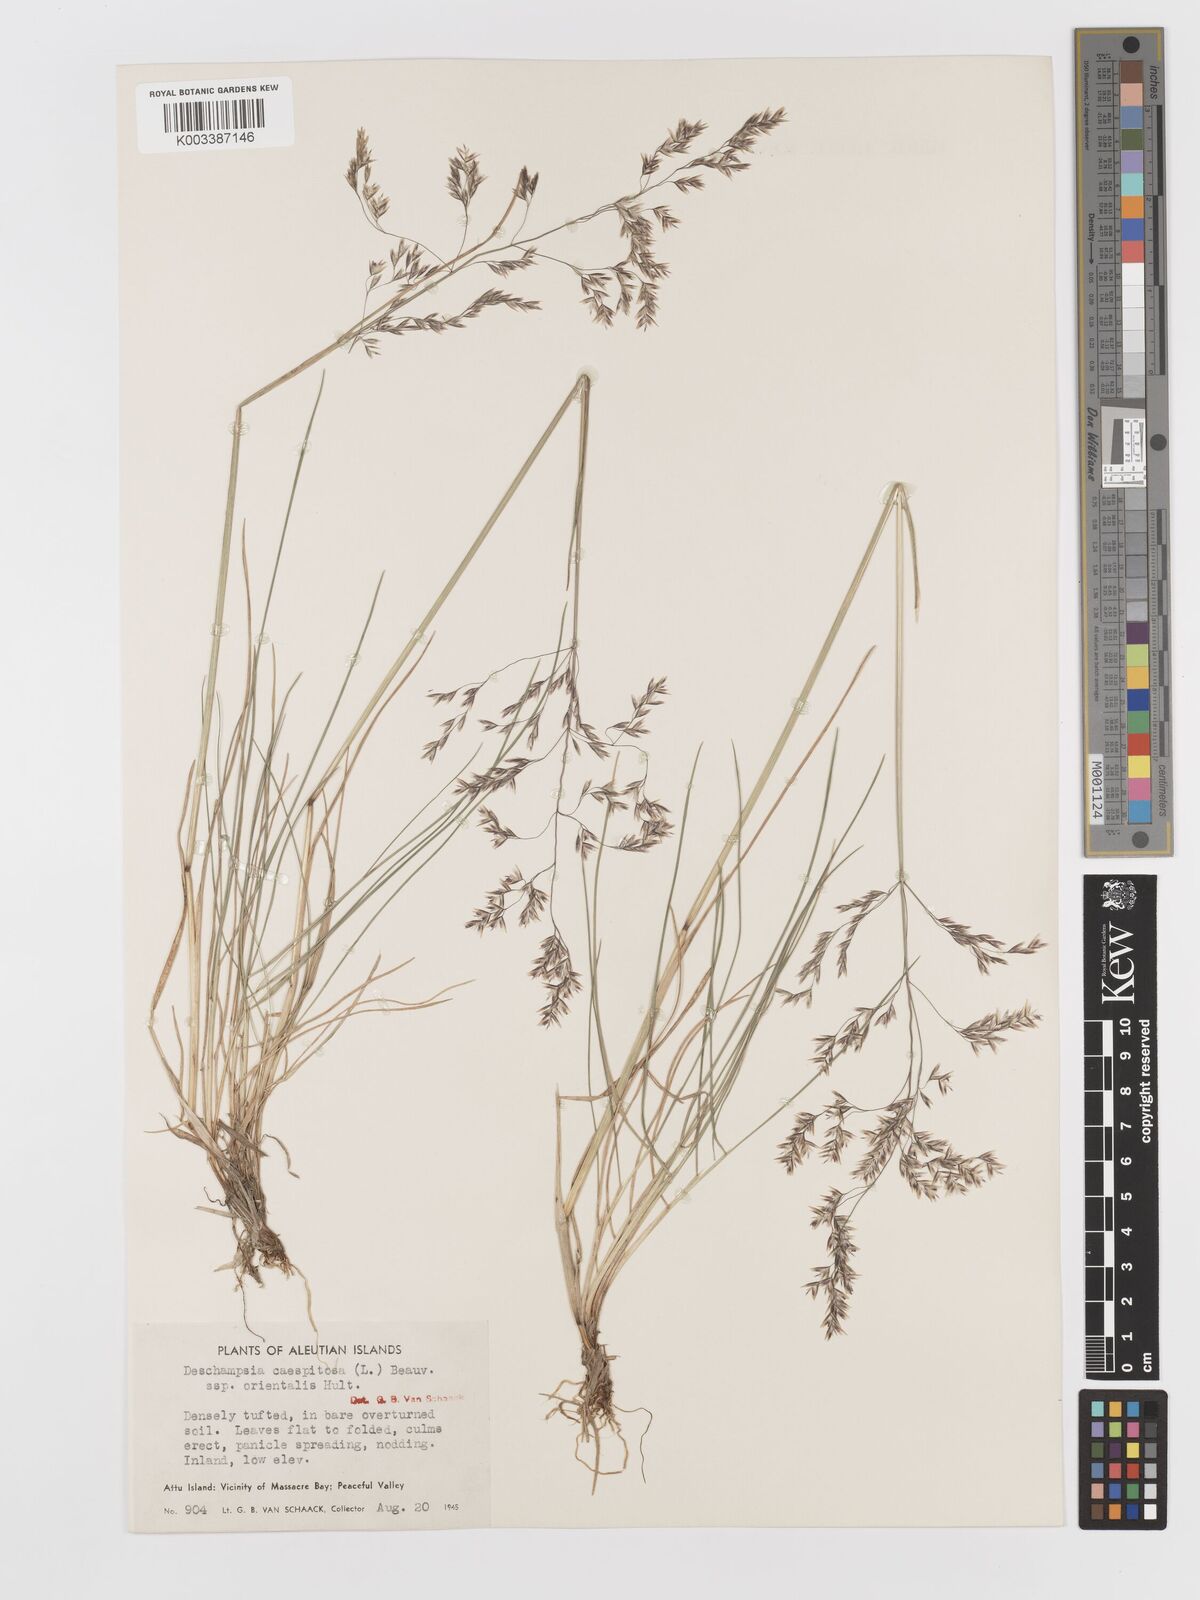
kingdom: Plantae
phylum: Tracheophyta
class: Liliopsida
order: Poales
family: Poaceae
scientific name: Poaceae
